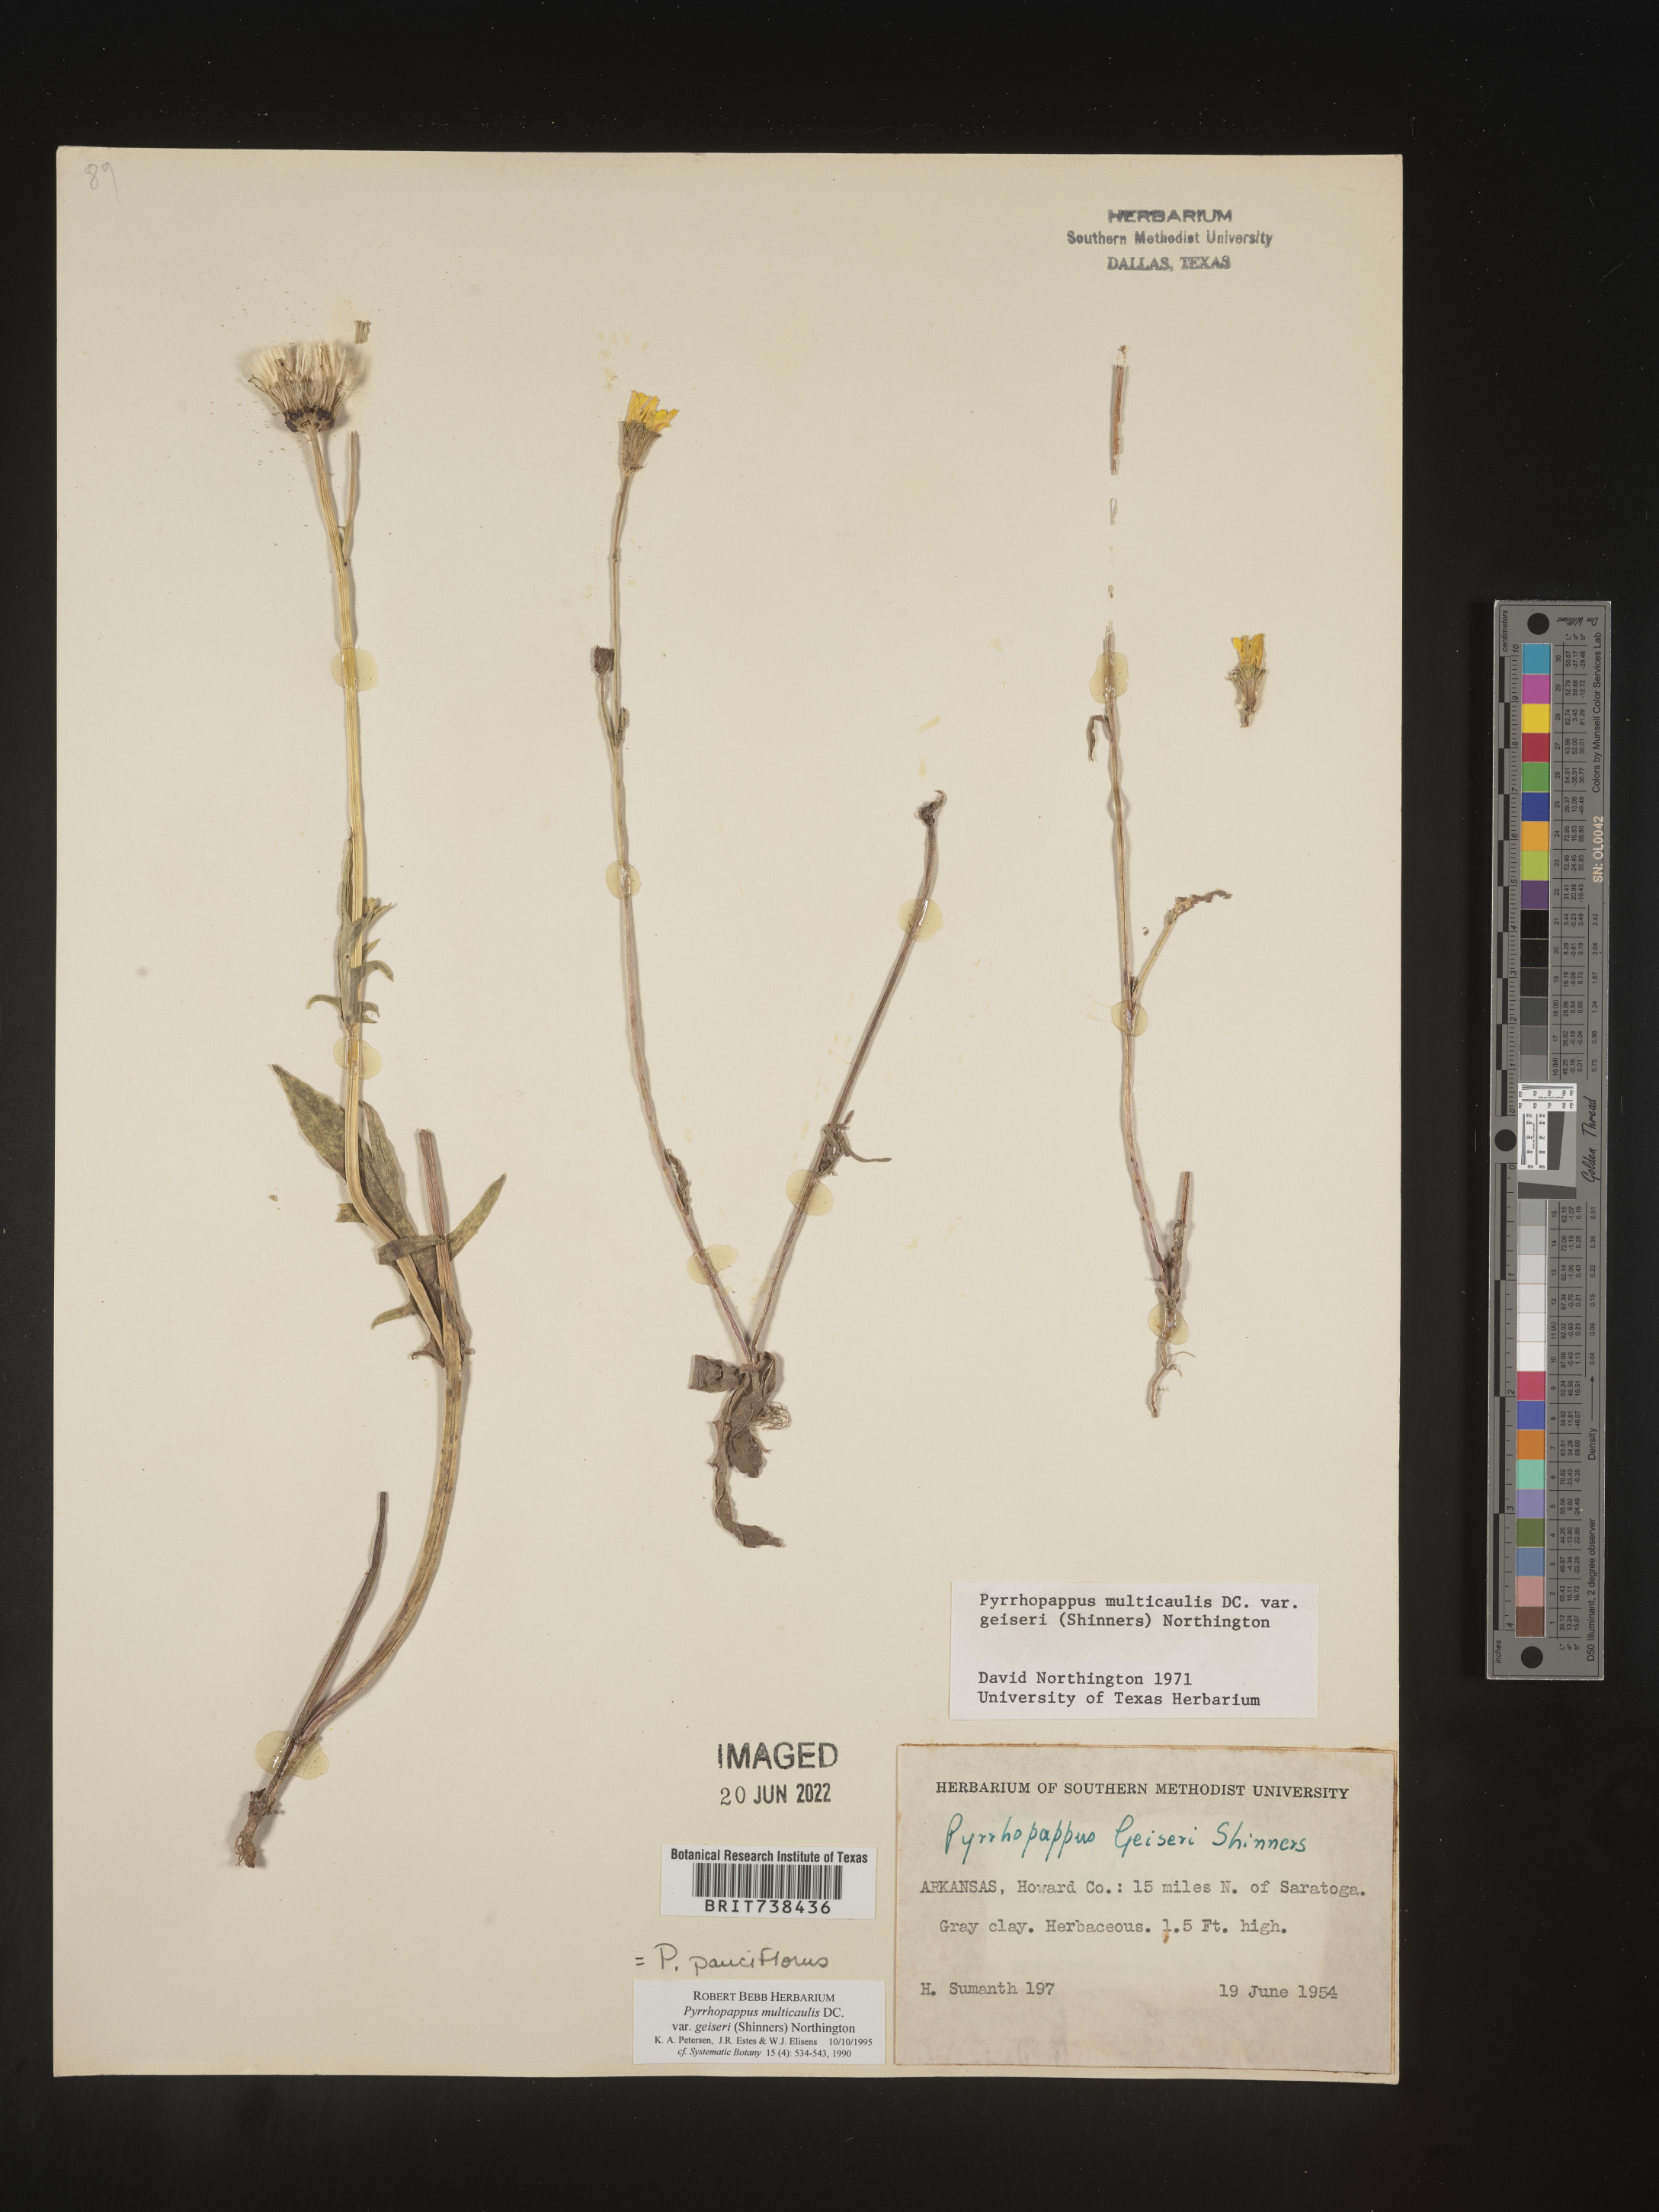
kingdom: Plantae
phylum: Tracheophyta
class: Magnoliopsida
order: Asterales
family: Asteraceae
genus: Pyrrhopappus
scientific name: Pyrrhopappus pauciflorus
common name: Texas false dandelion
